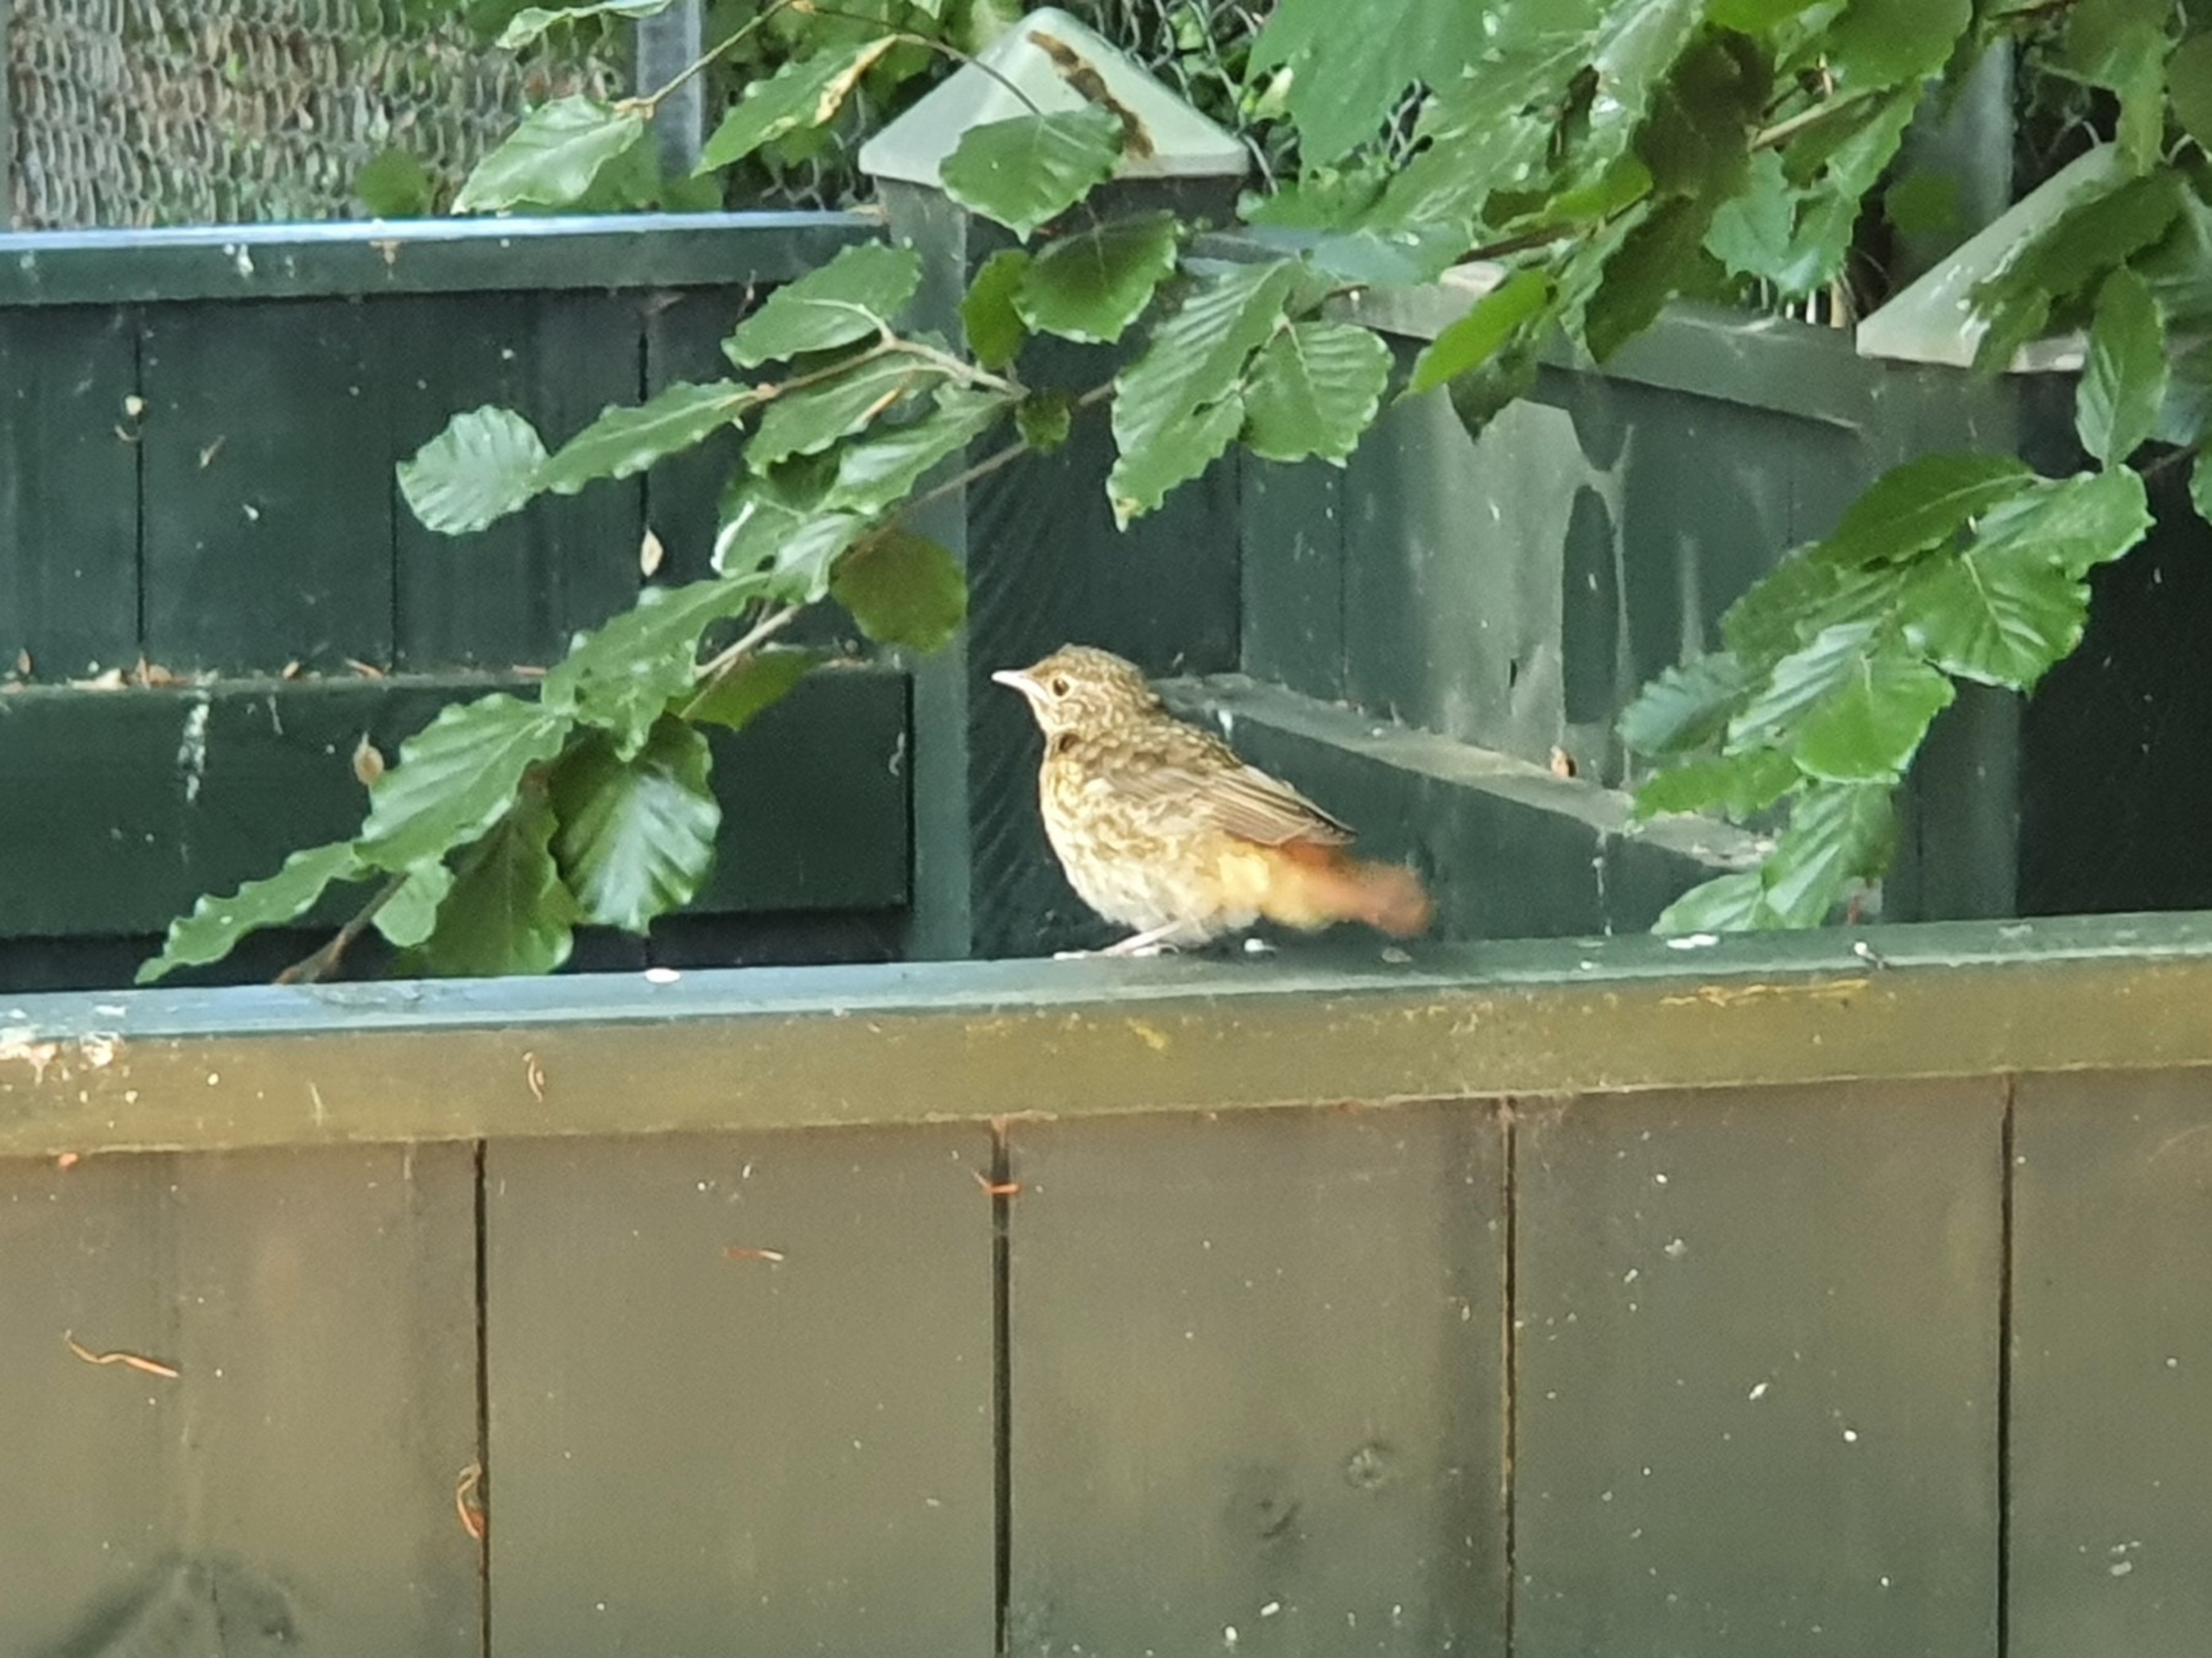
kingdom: Animalia
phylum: Chordata
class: Aves
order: Passeriformes
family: Muscicapidae
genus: Phoenicurus
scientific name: Phoenicurus phoenicurus
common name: Rødstjert
